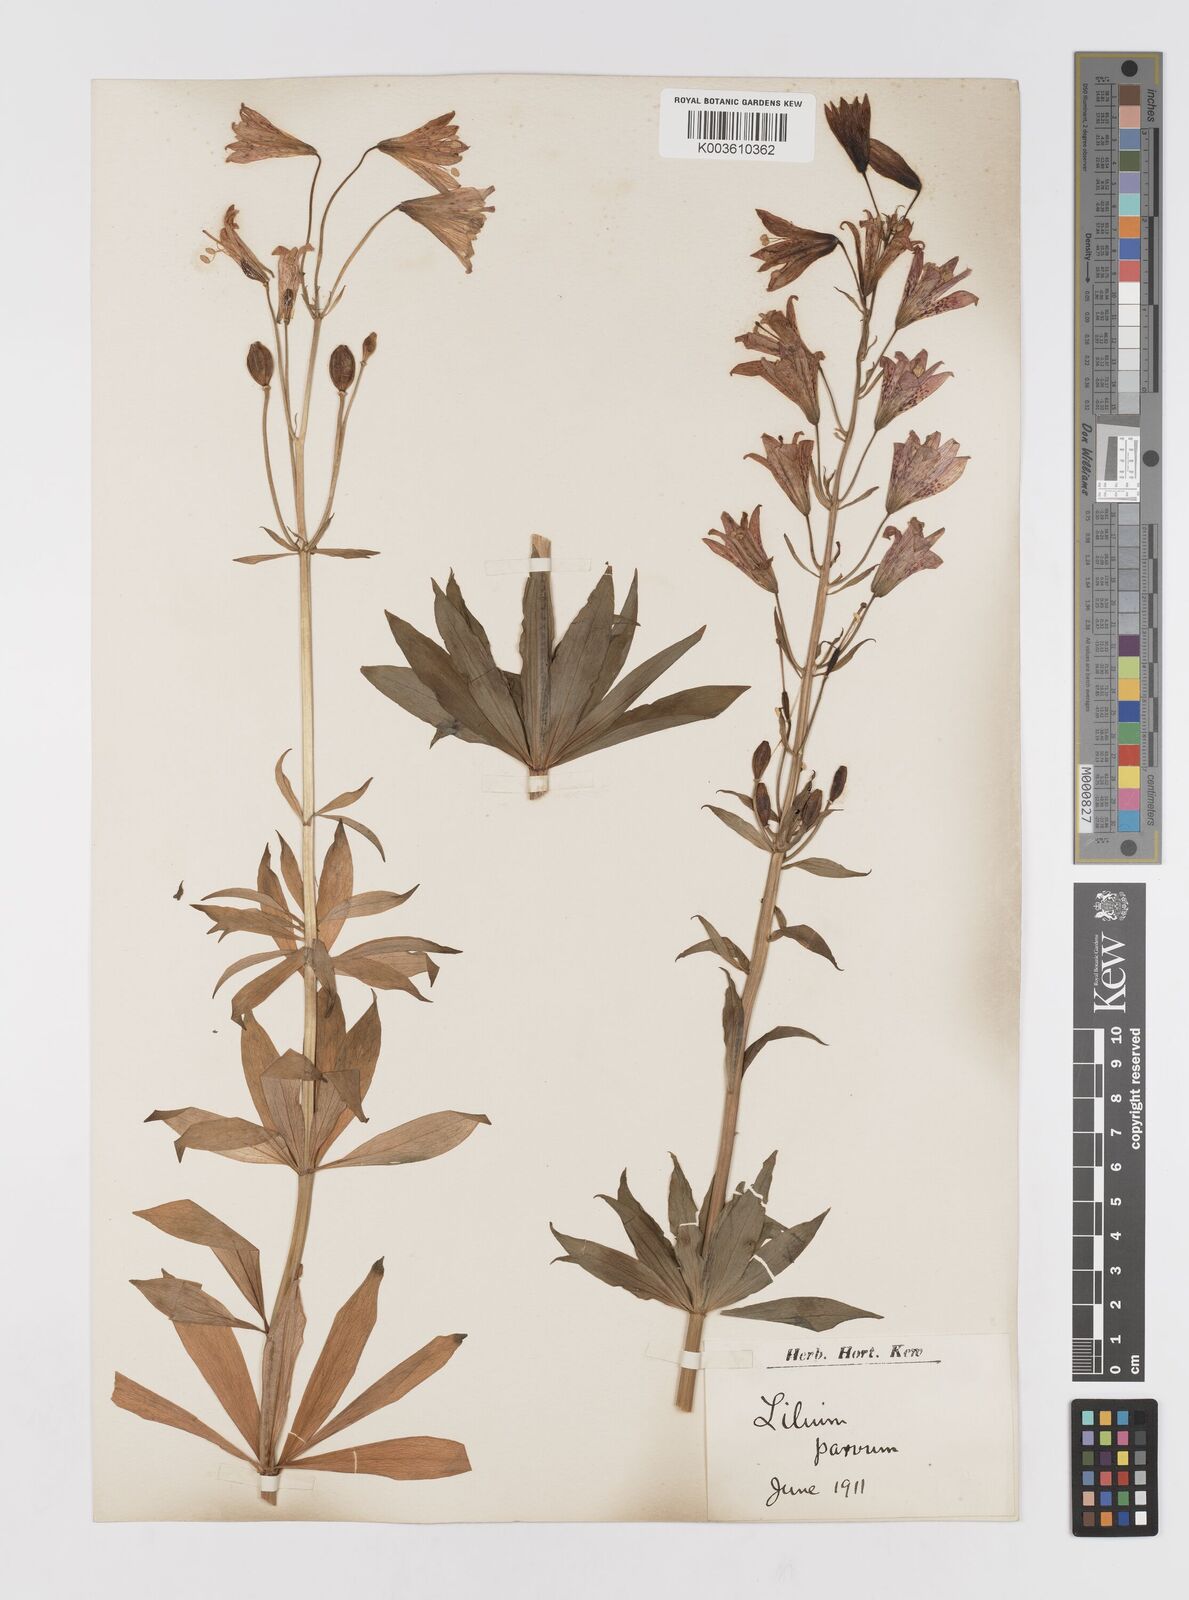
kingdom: Plantae
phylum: Tracheophyta
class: Liliopsida
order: Liliales
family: Liliaceae
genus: Lilium
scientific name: Lilium parvum
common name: Alpine lily
